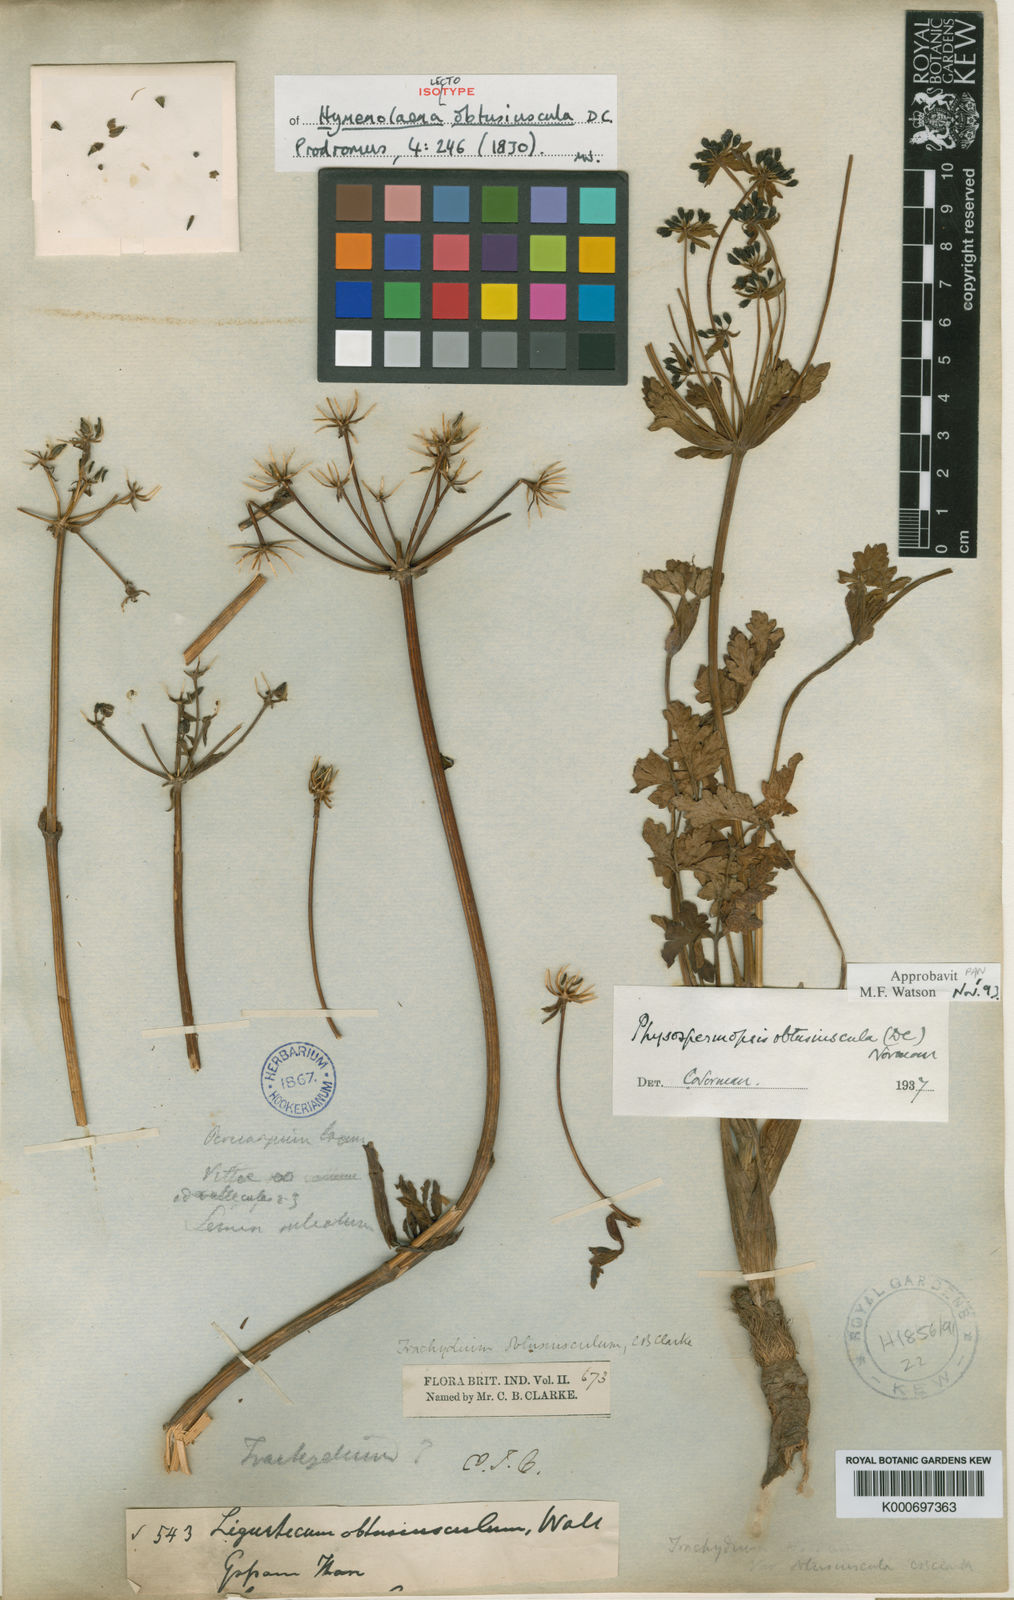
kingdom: Plantae
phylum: Tracheophyta
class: Magnoliopsida
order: Apiales
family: Apiaceae
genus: Physospermopsis
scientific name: Physospermopsis obtusiuscula
